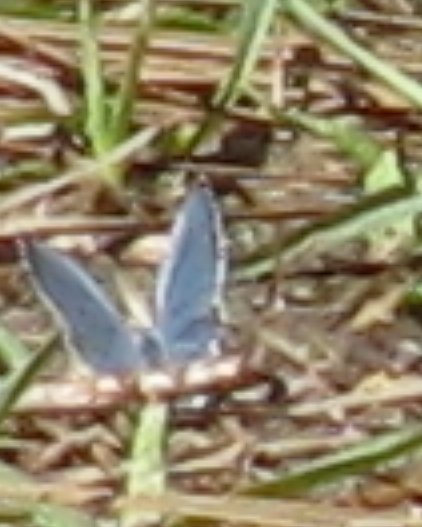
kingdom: Animalia
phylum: Arthropoda
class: Insecta
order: Lepidoptera
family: Lycaenidae
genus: Cyaniris
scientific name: Cyaniris neglecta
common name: Summer Azure
